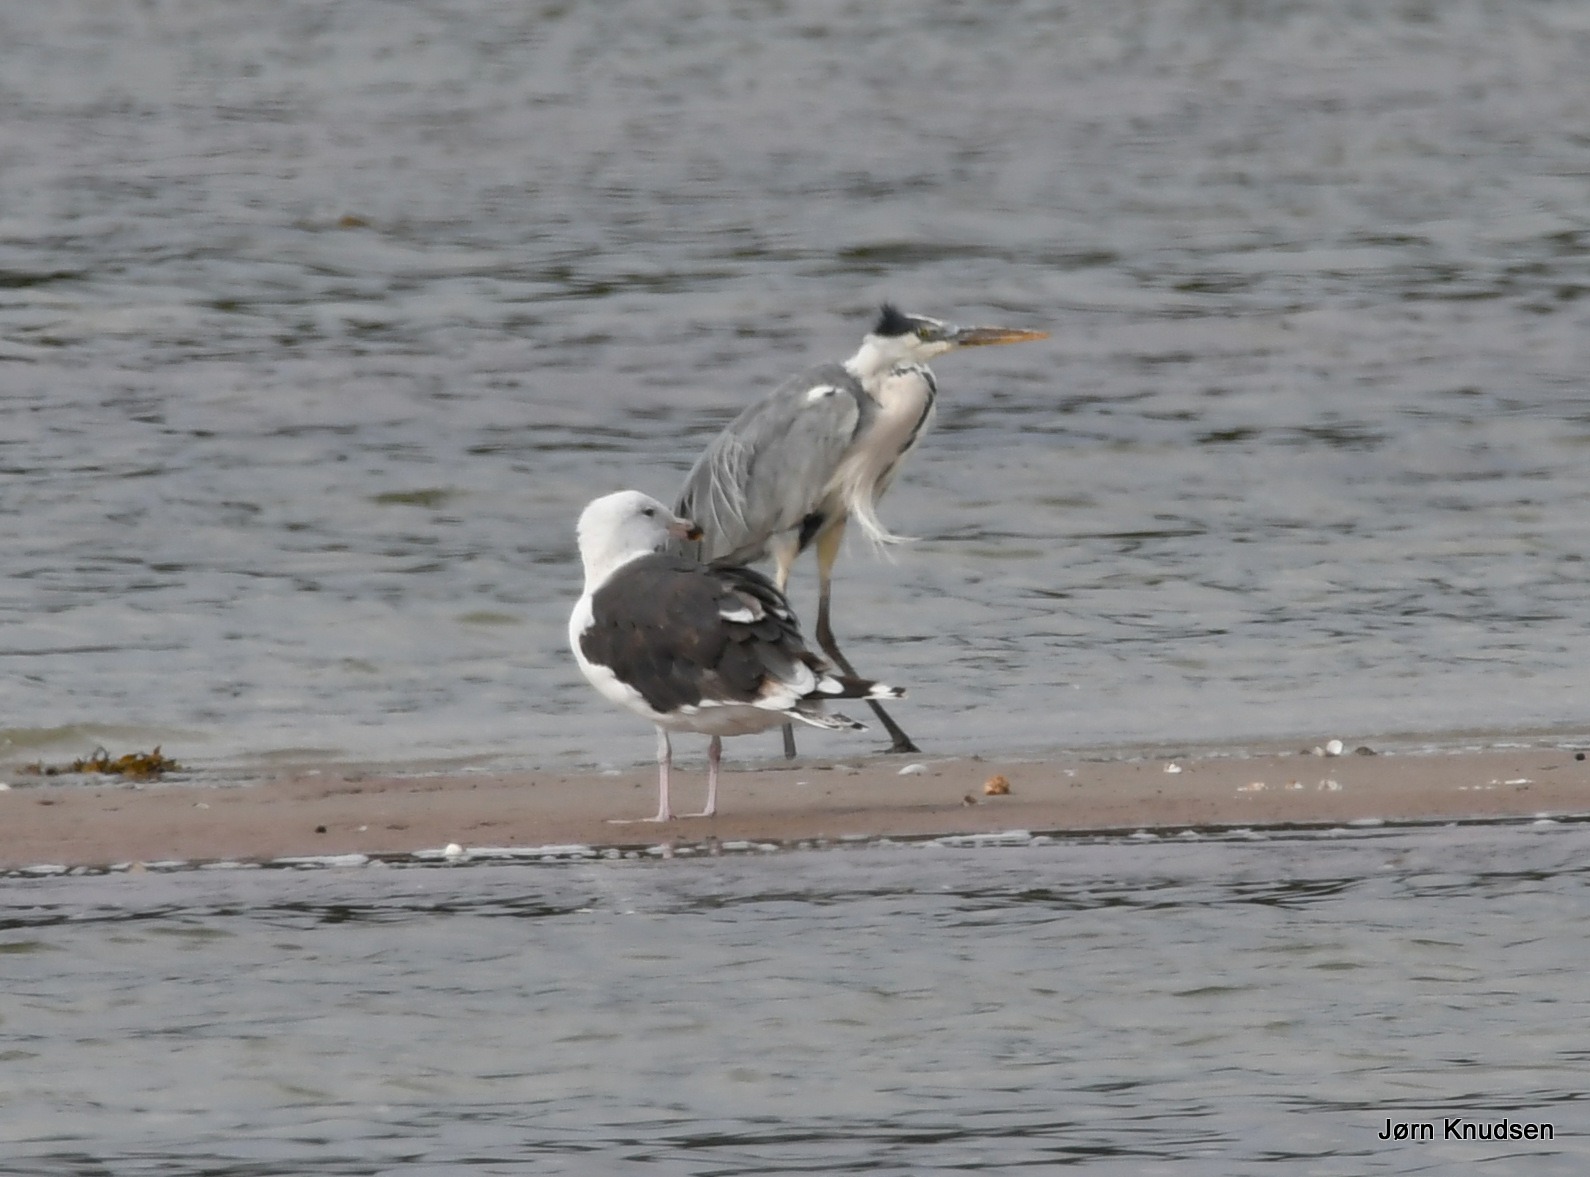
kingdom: Animalia
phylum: Chordata
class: Aves
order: Pelecaniformes
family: Ardeidae
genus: Ardea
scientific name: Ardea cinerea
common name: Fiskehejre
